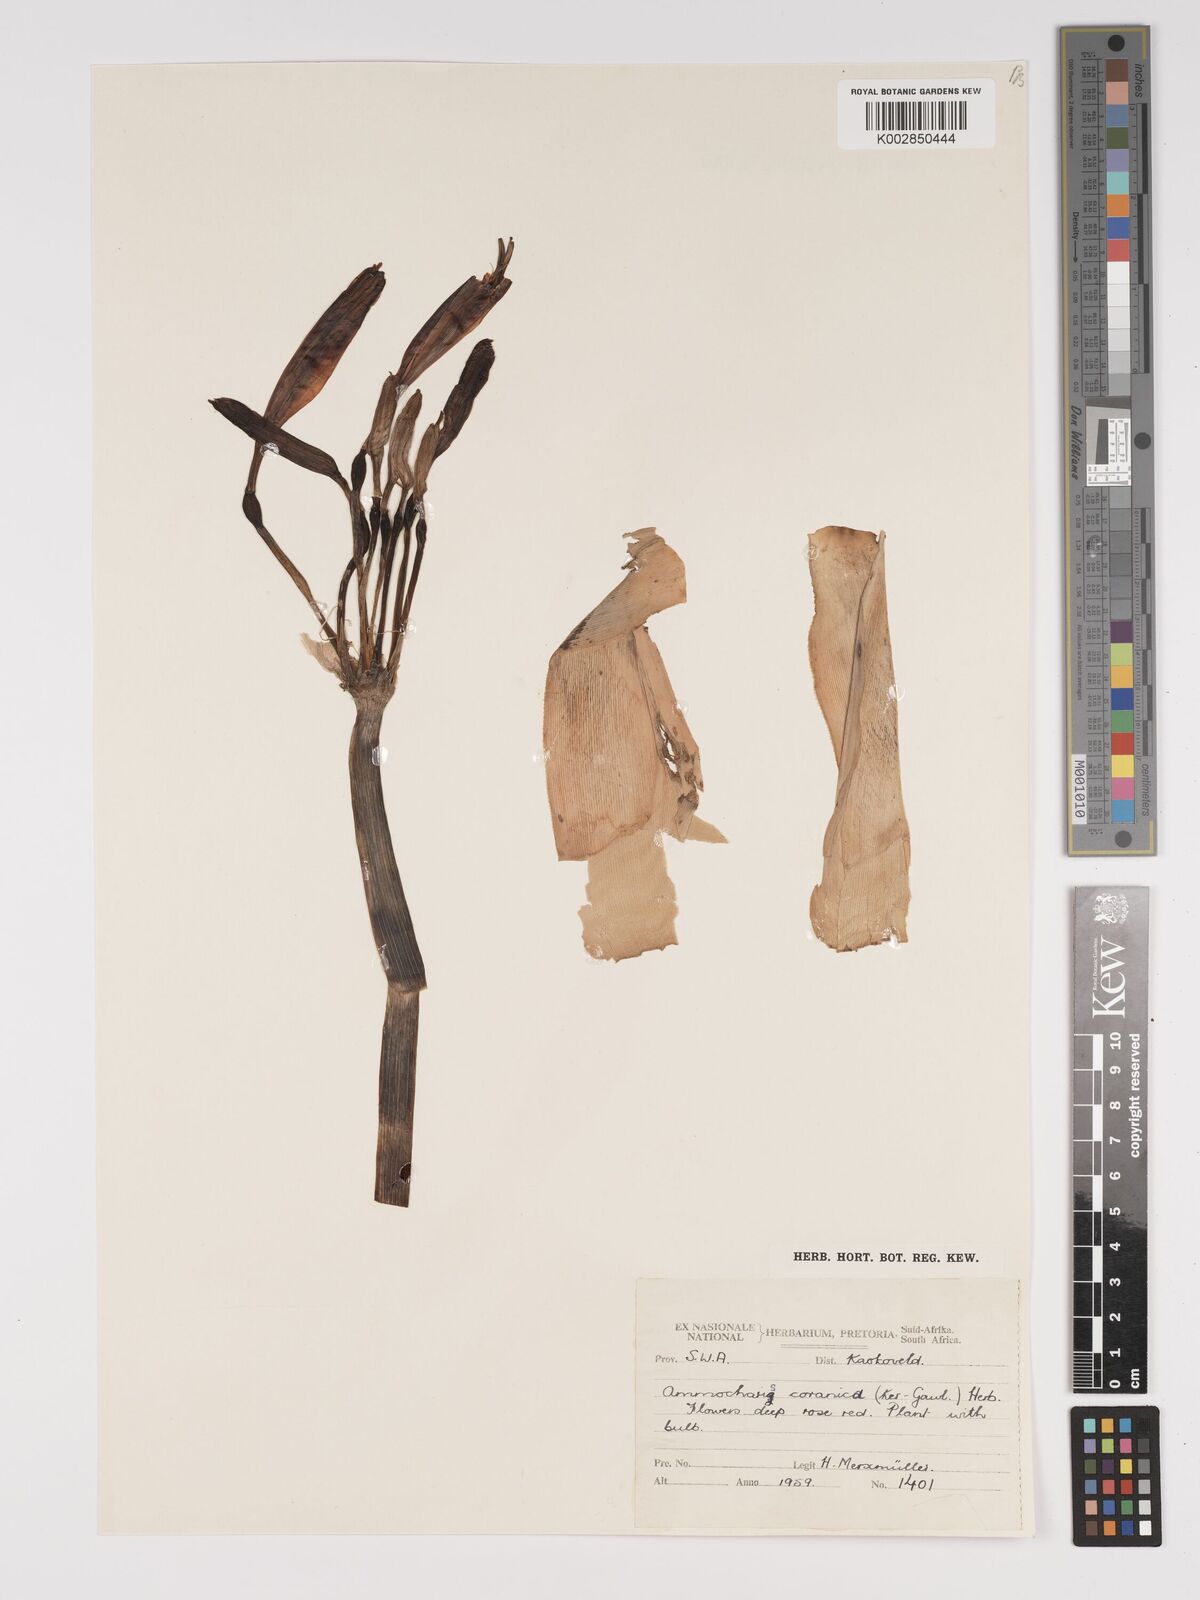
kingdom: Plantae
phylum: Tracheophyta
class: Liliopsida
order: Asparagales
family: Amaryllidaceae
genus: Ammocharis
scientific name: Ammocharis coranica
